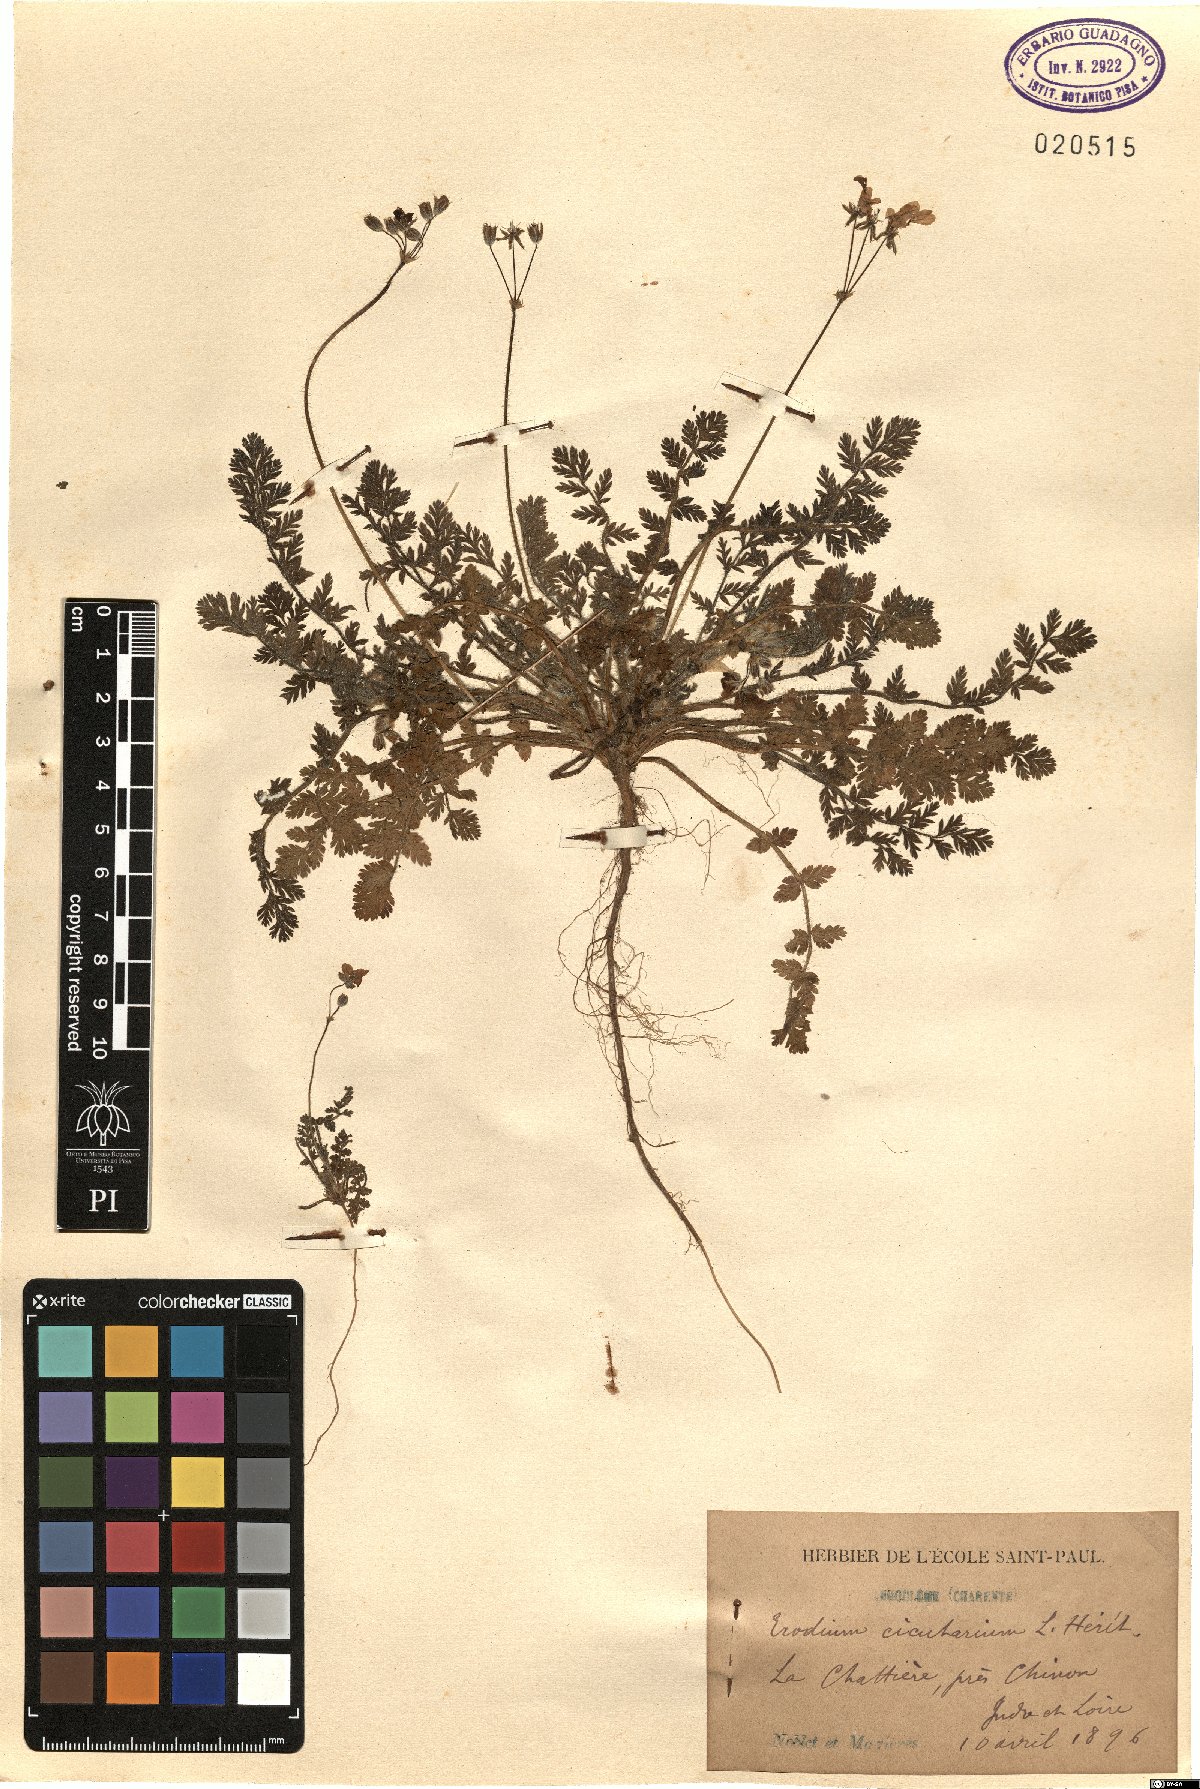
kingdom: Plantae
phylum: Tracheophyta
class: Magnoliopsida
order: Geraniales
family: Geraniaceae
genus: Erodium
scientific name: Erodium cicutarium
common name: Common stork's-bill
